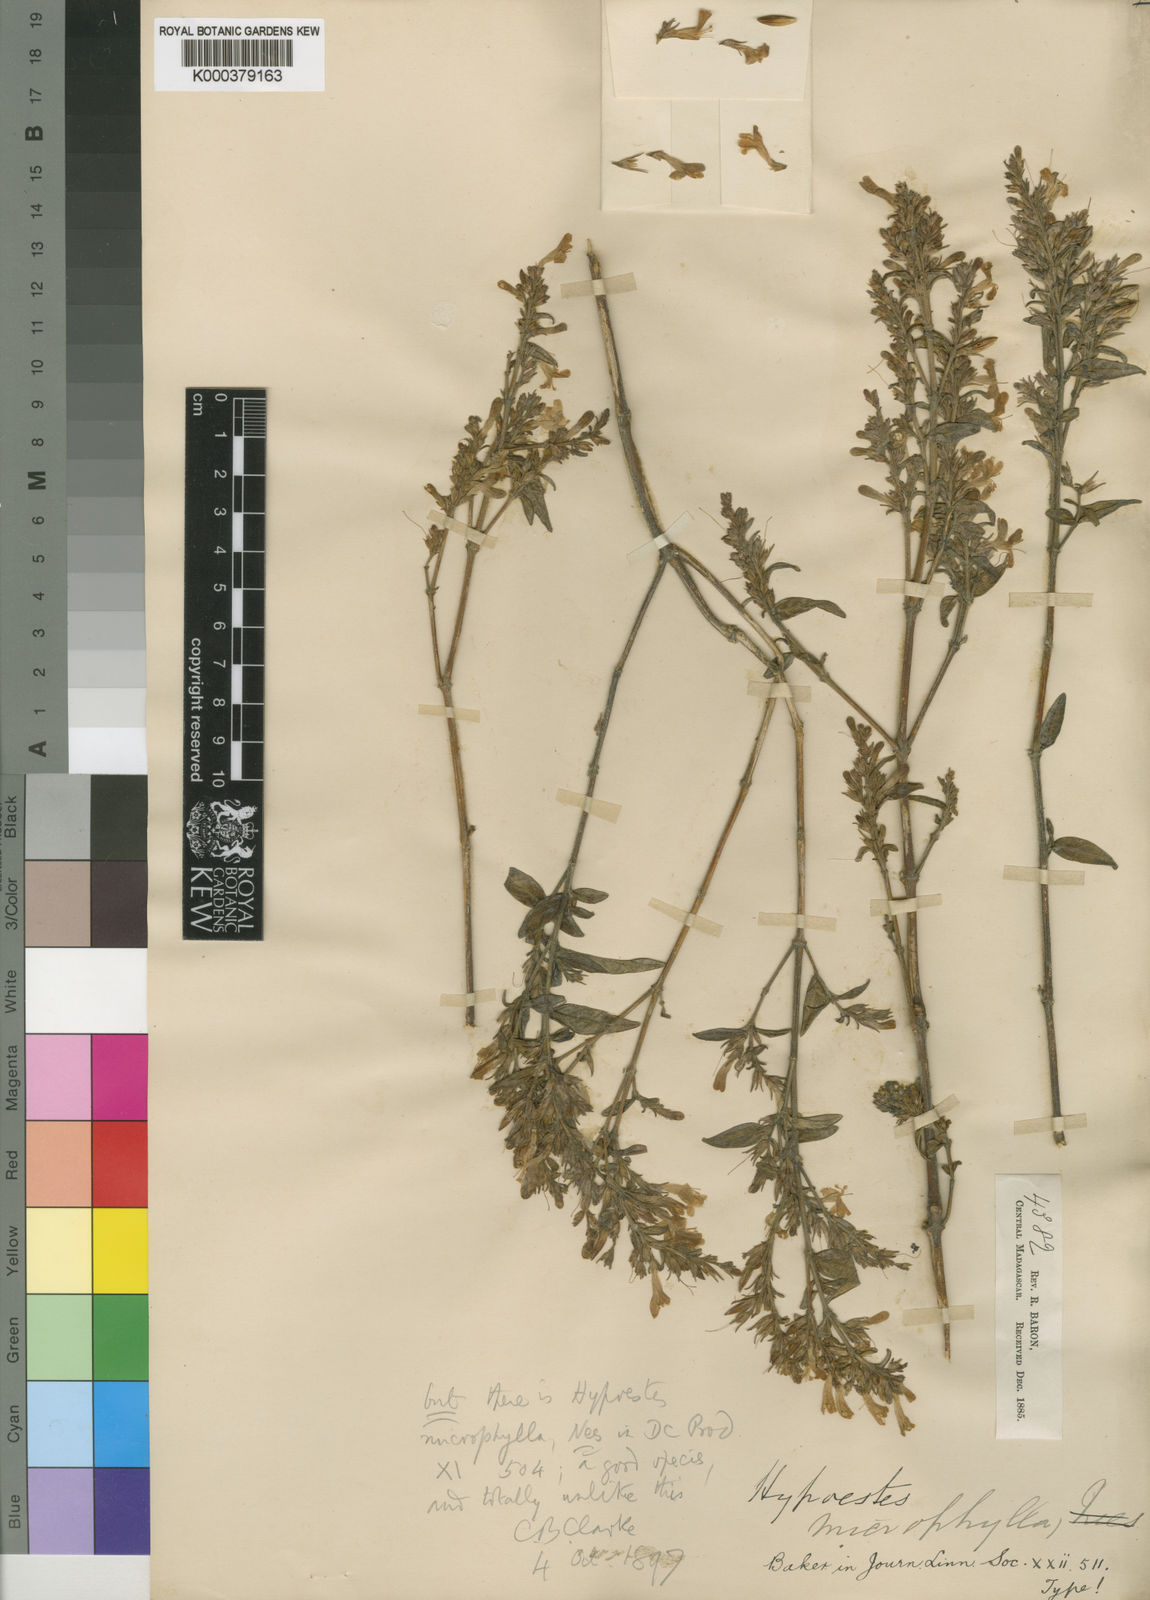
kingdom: Plantae
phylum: Tracheophyta
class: Magnoliopsida
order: Lamiales
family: Acanthaceae
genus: Hypoestes
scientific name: Hypoestes stachyoides
